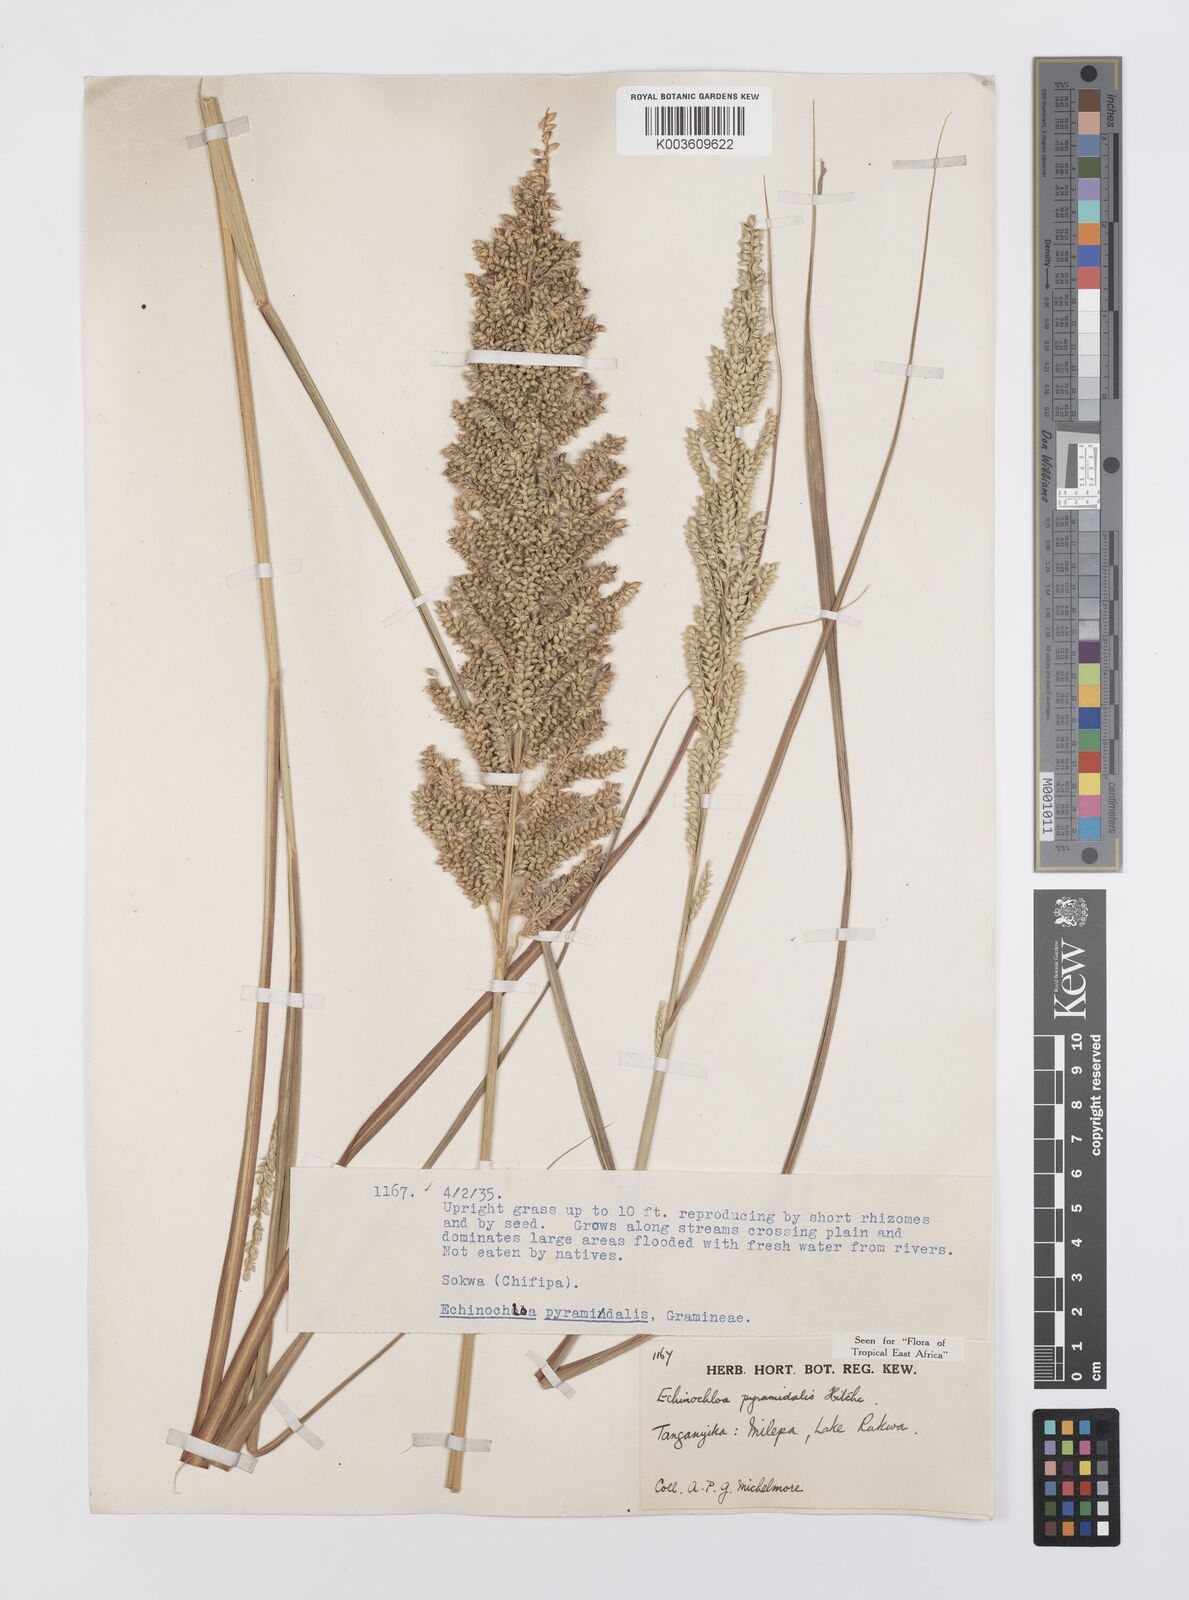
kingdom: Plantae
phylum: Tracheophyta
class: Liliopsida
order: Poales
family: Poaceae
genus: Echinochloa
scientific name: Echinochloa pyramidalis
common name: Antelope grass
